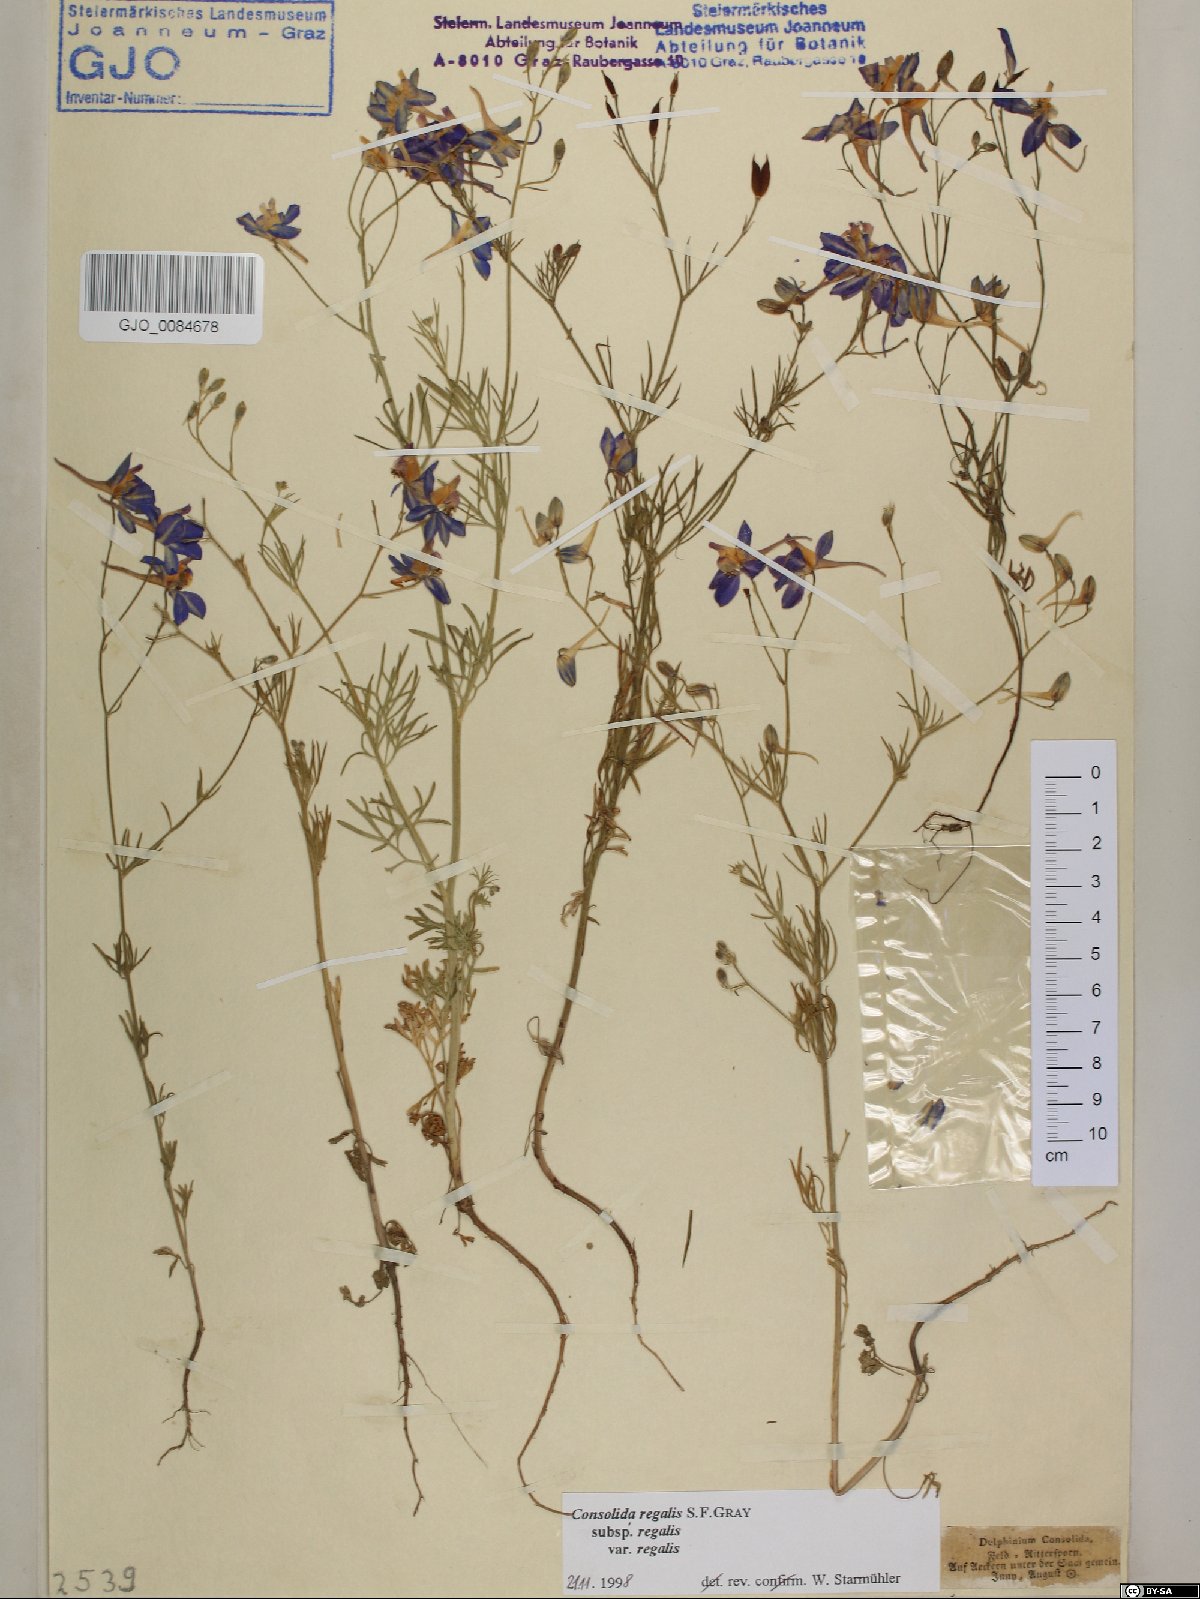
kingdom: Plantae
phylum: Tracheophyta
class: Magnoliopsida
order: Ranunculales
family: Ranunculaceae
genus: Delphinium
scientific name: Delphinium consolida
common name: Branching larkspur
